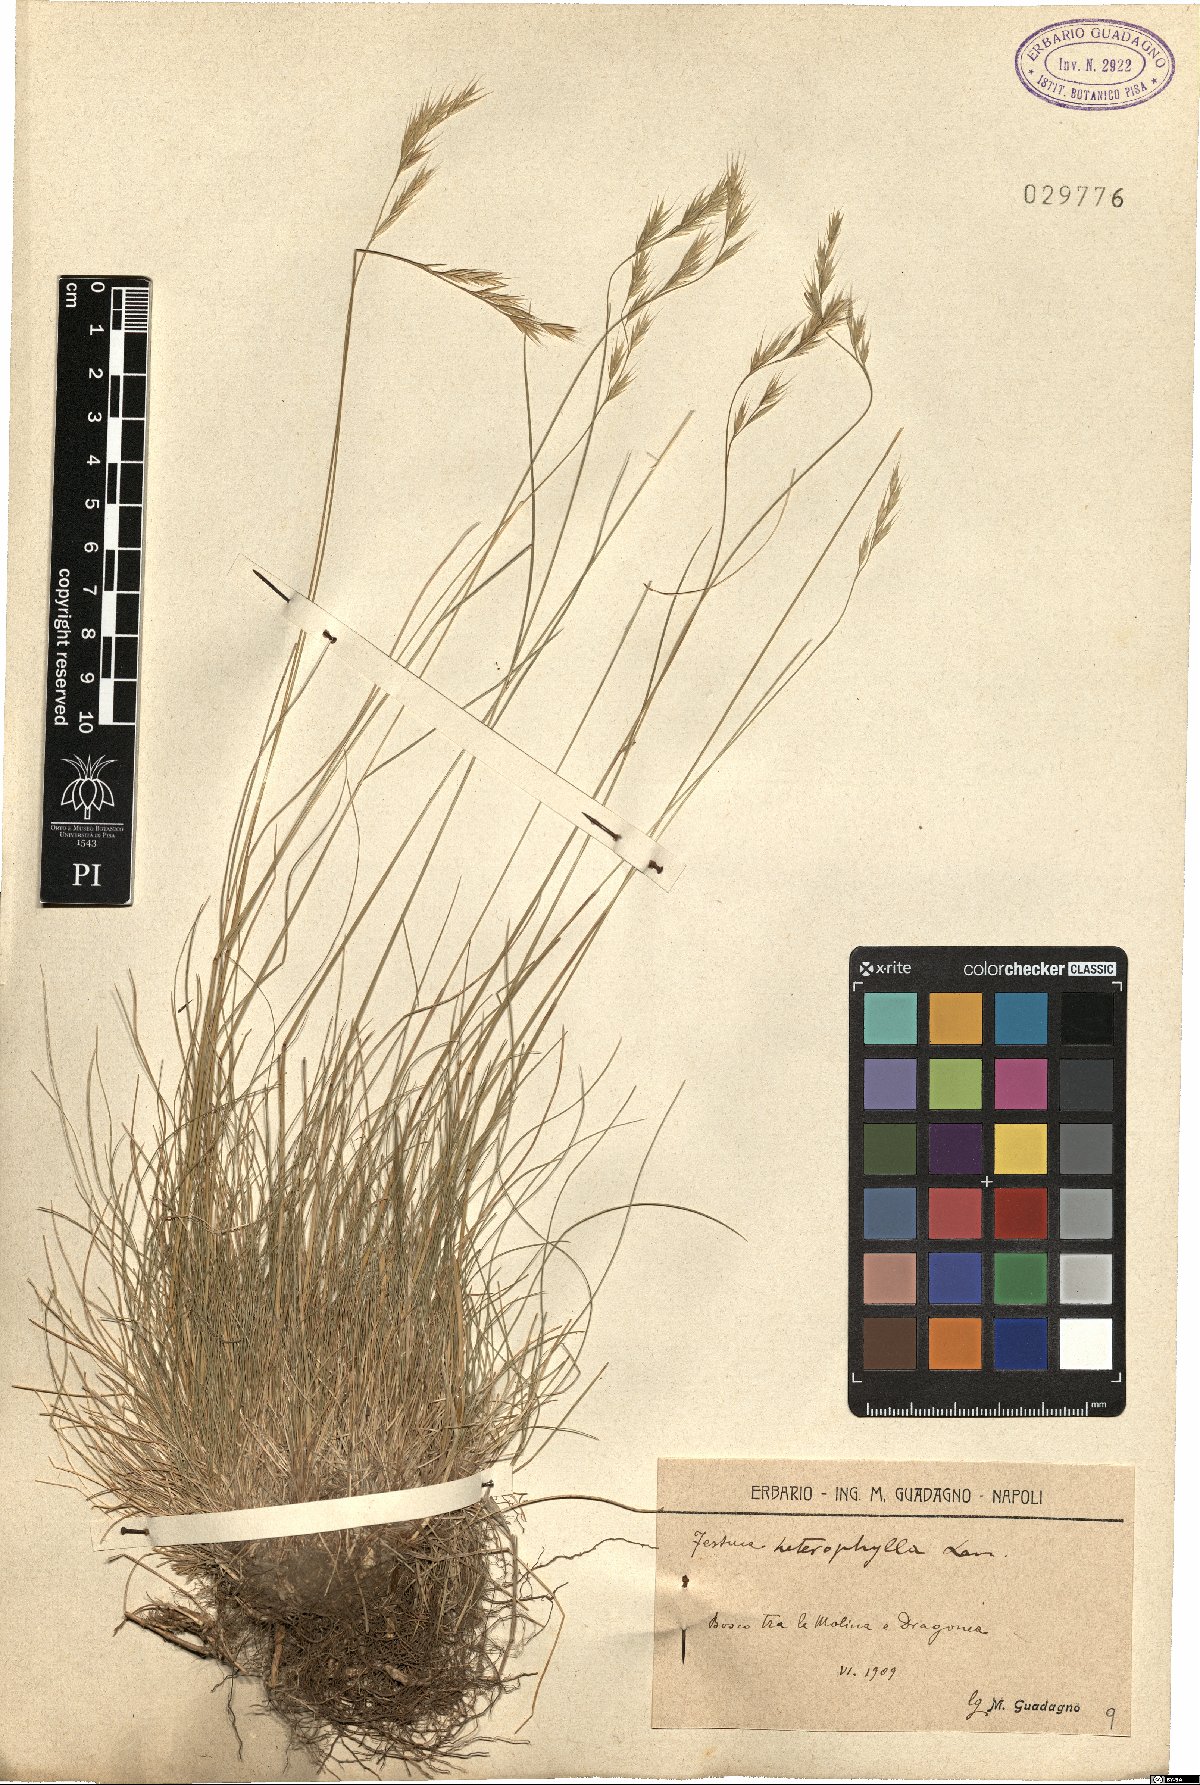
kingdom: Plantae
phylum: Tracheophyta
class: Liliopsida
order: Poales
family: Poaceae
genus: Festuca
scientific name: Festuca heterophylla
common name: Various-leaved fescue
